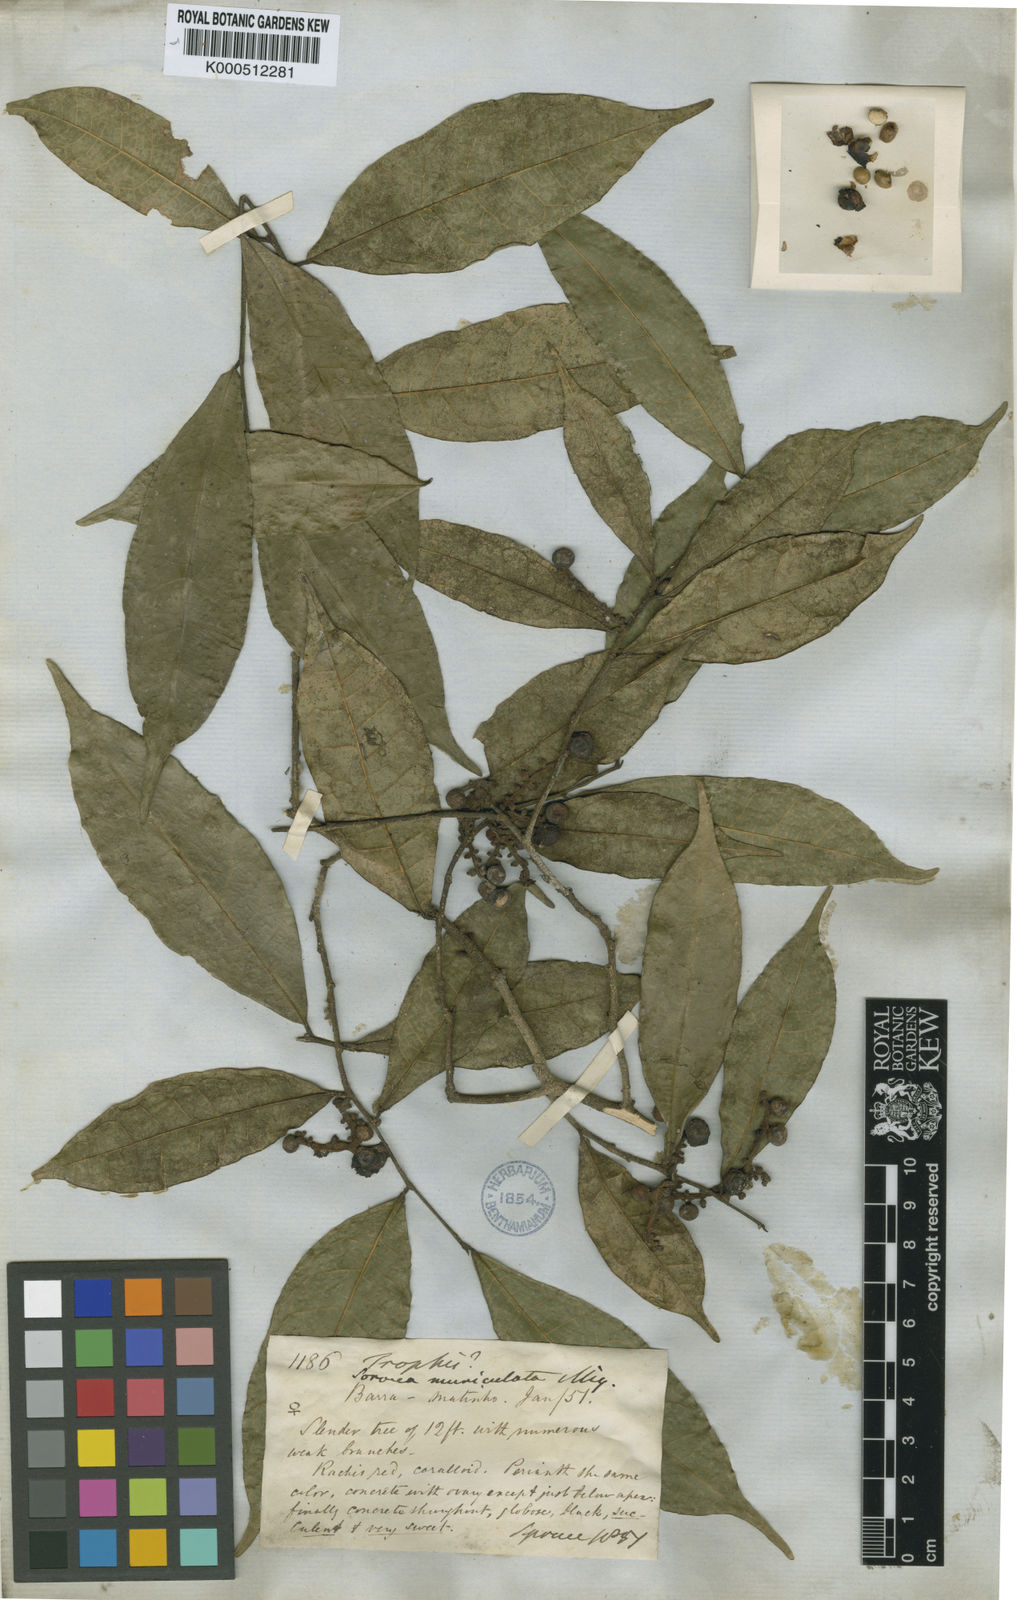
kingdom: Plantae
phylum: Tracheophyta
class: Magnoliopsida
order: Rosales
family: Moraceae
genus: Sorocea
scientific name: Sorocea muriculata
